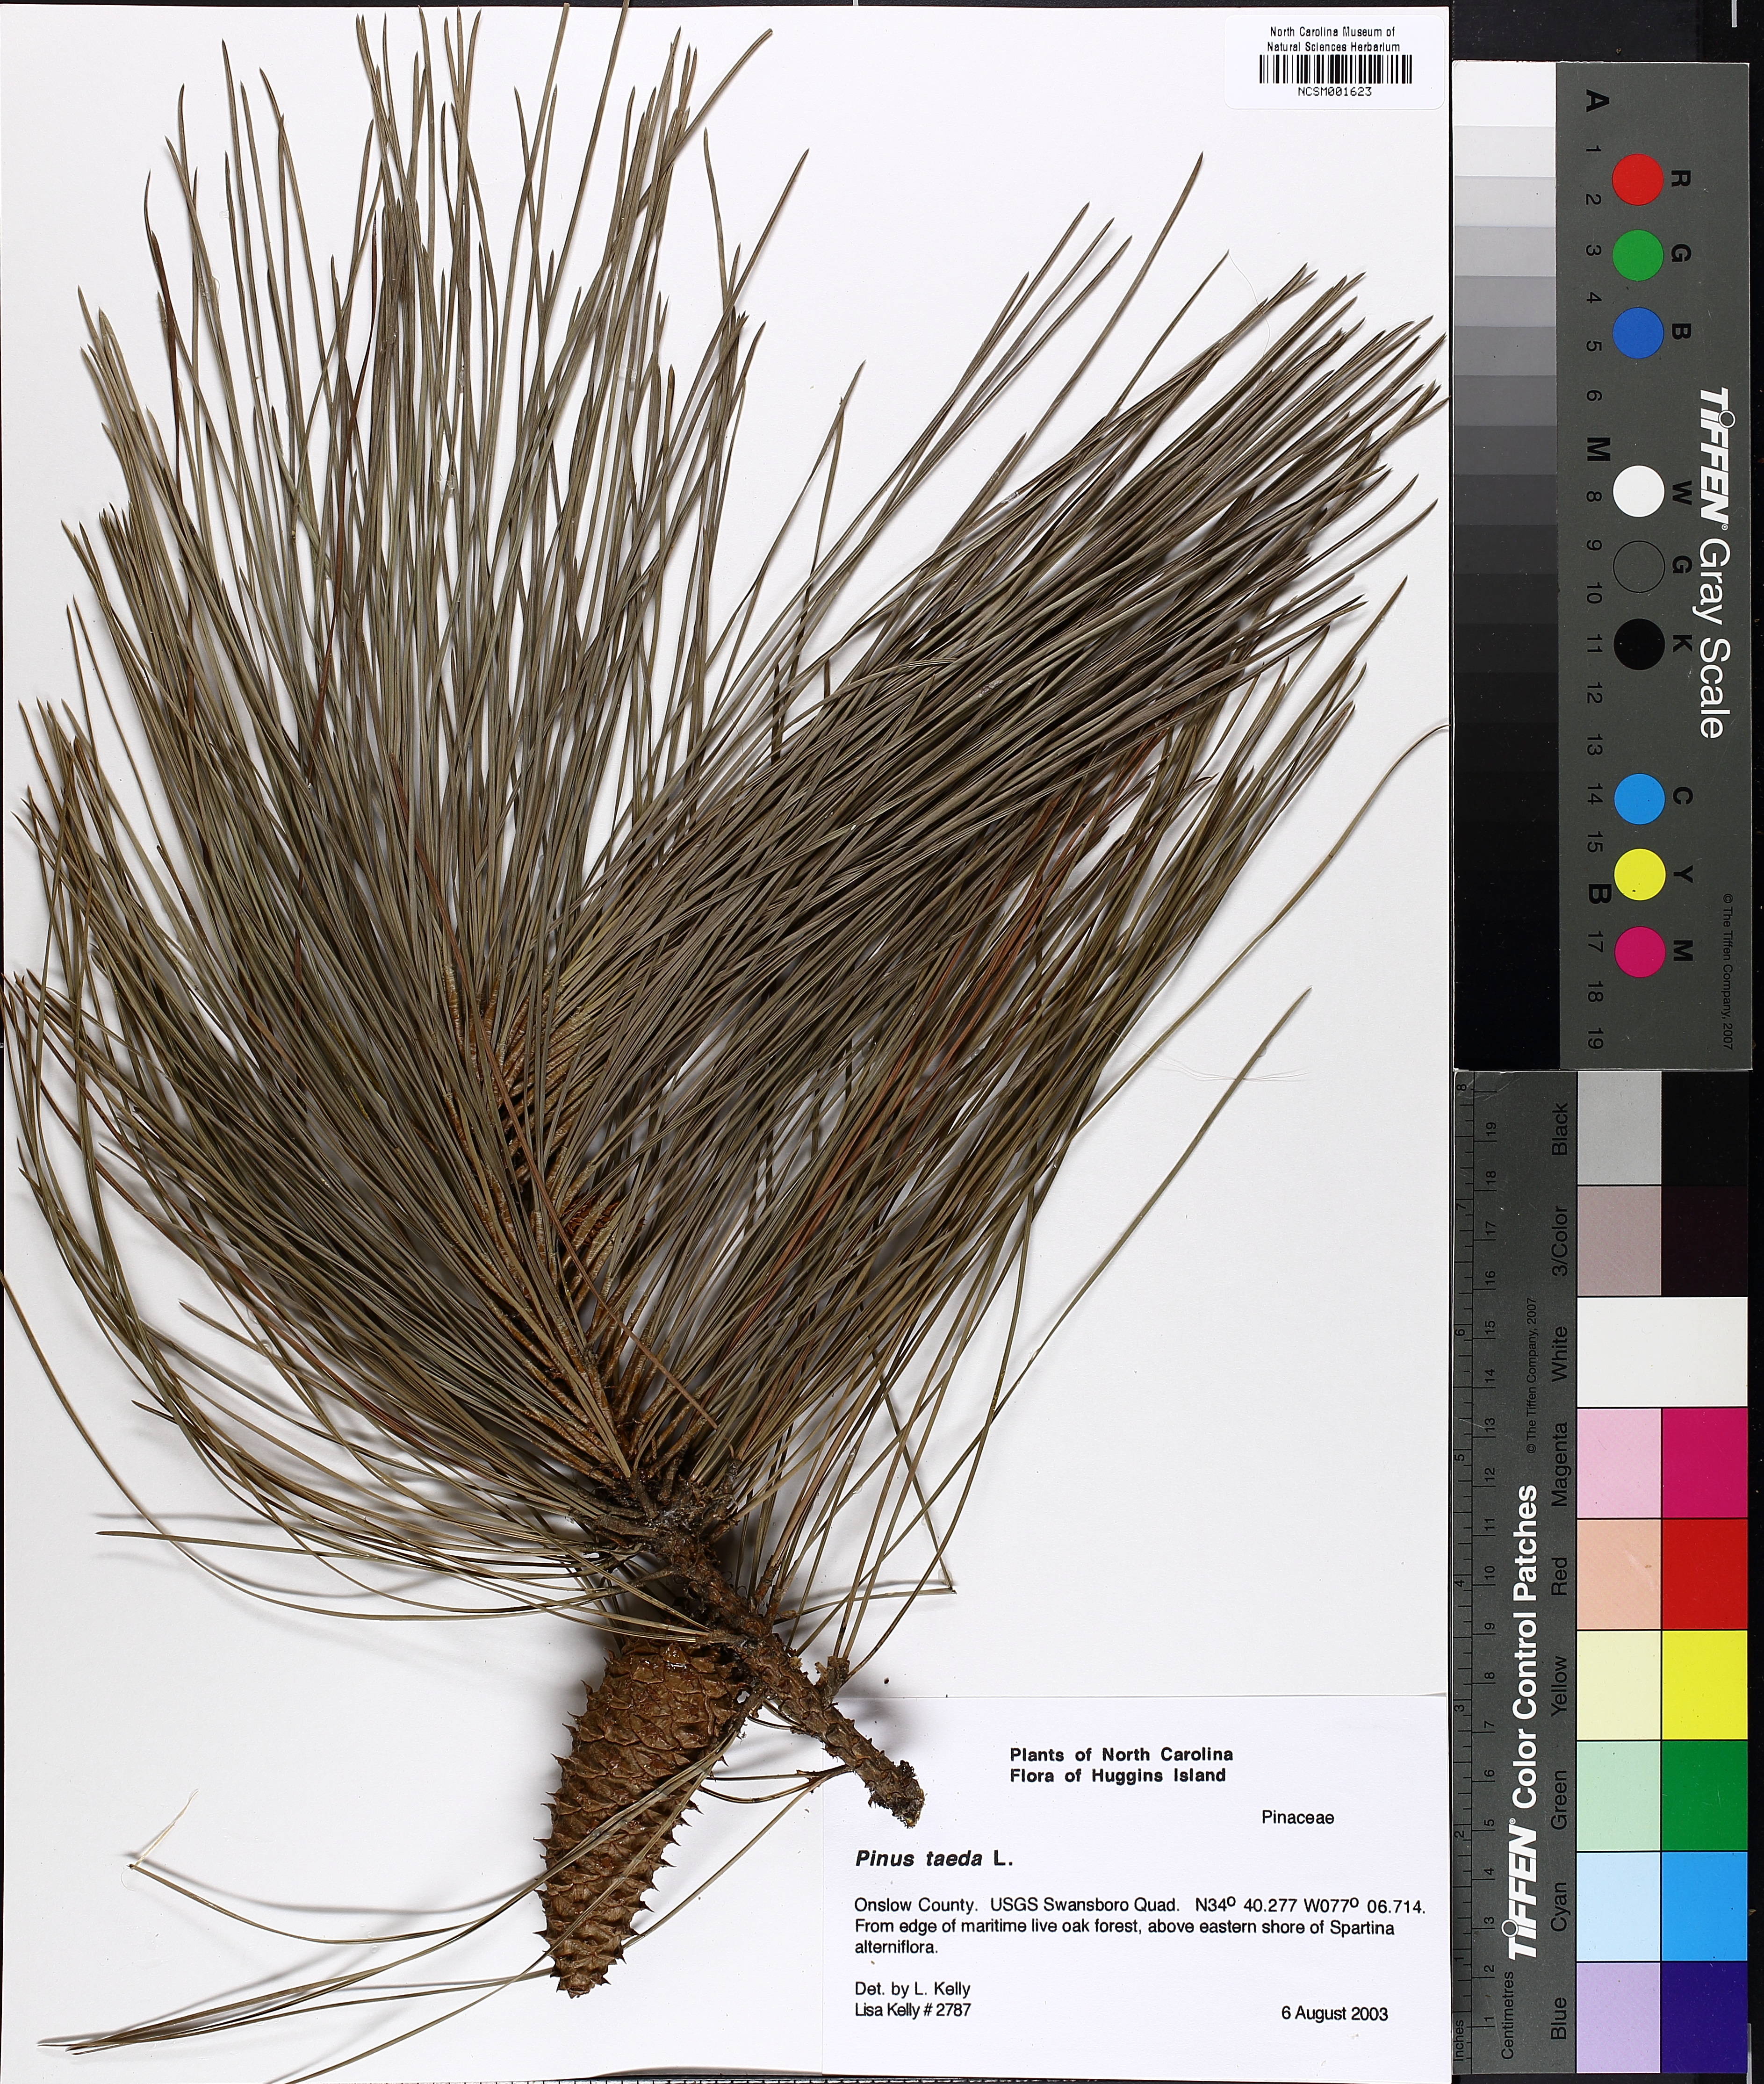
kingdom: Plantae
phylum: Tracheophyta
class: Pinopsida
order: Pinales
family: Pinaceae
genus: Pinus
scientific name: Pinus taeda
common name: Loblolly pine
